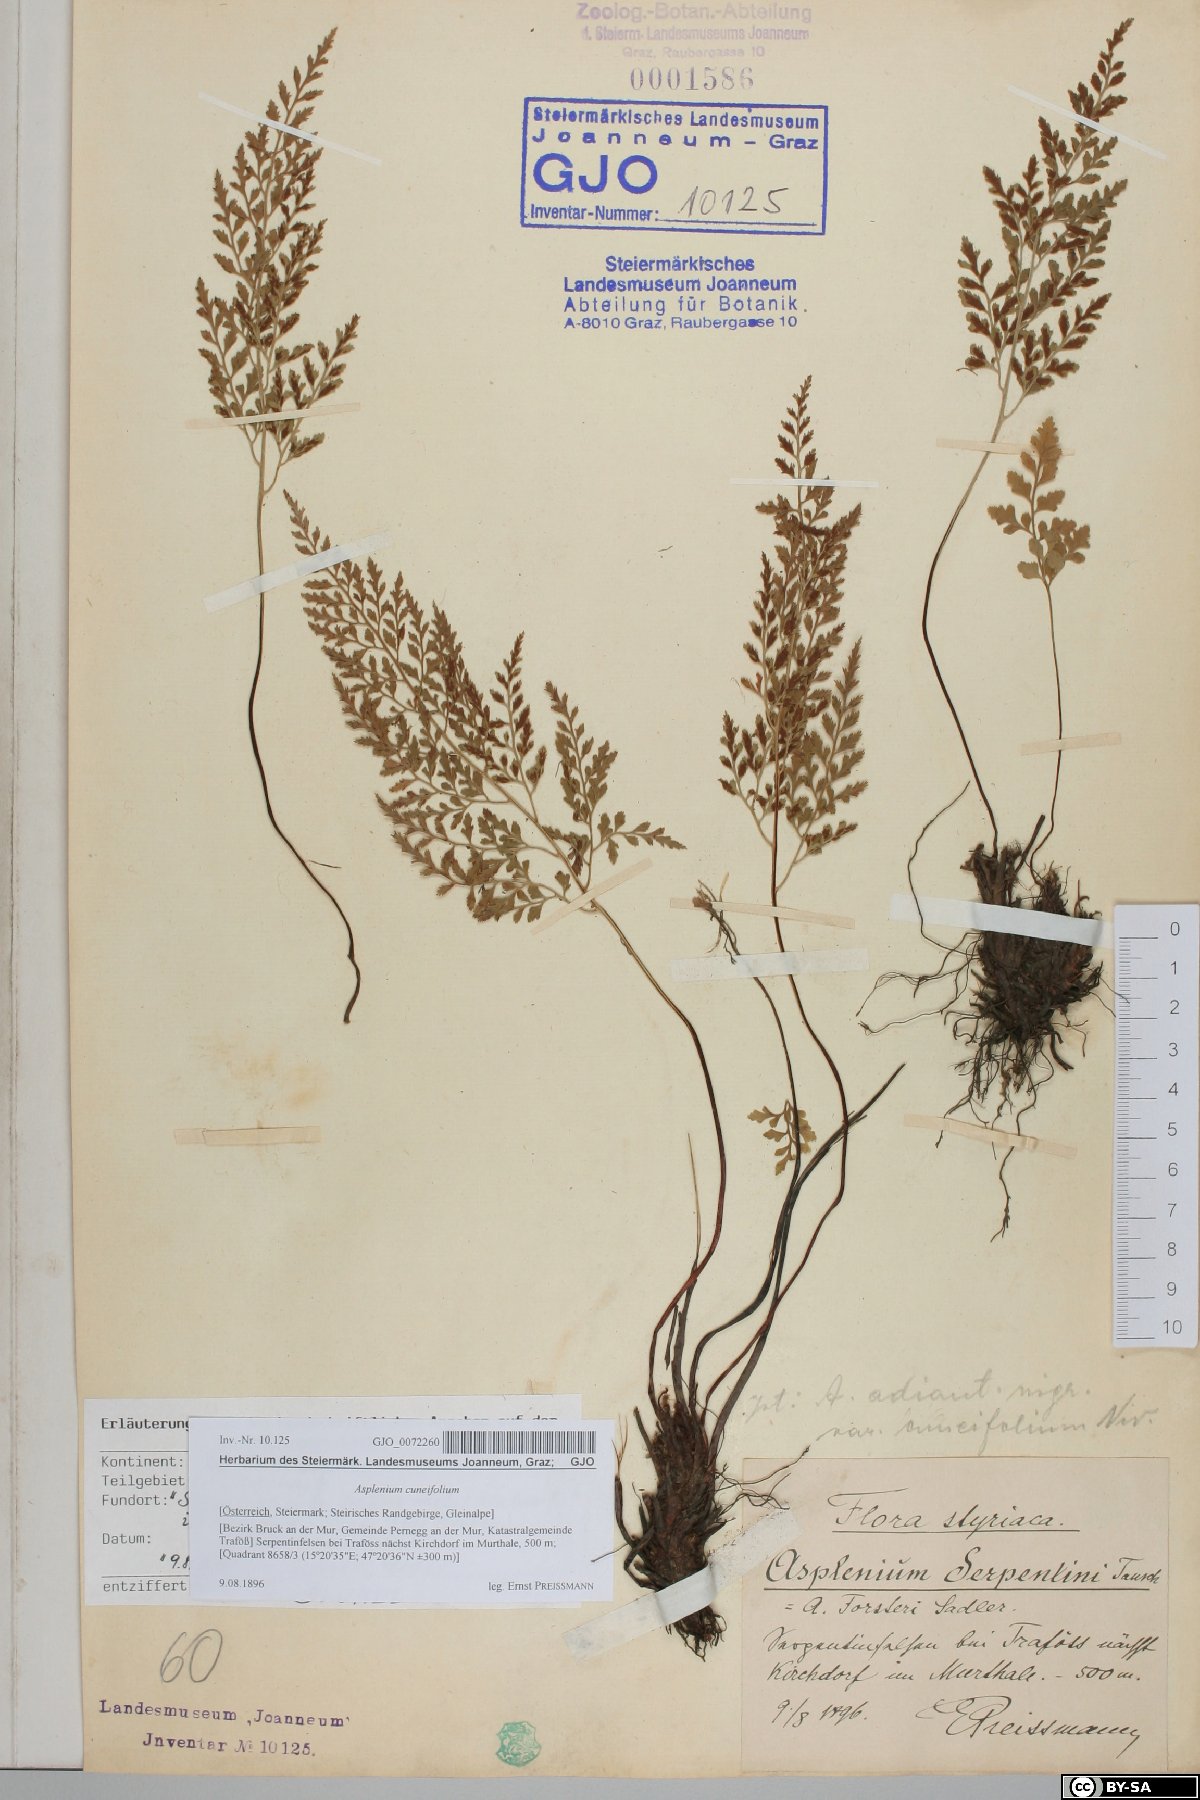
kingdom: Plantae
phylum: Tracheophyta
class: Polypodiopsida
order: Polypodiales
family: Aspleniaceae
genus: Asplenium
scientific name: Asplenium cuneifolium
